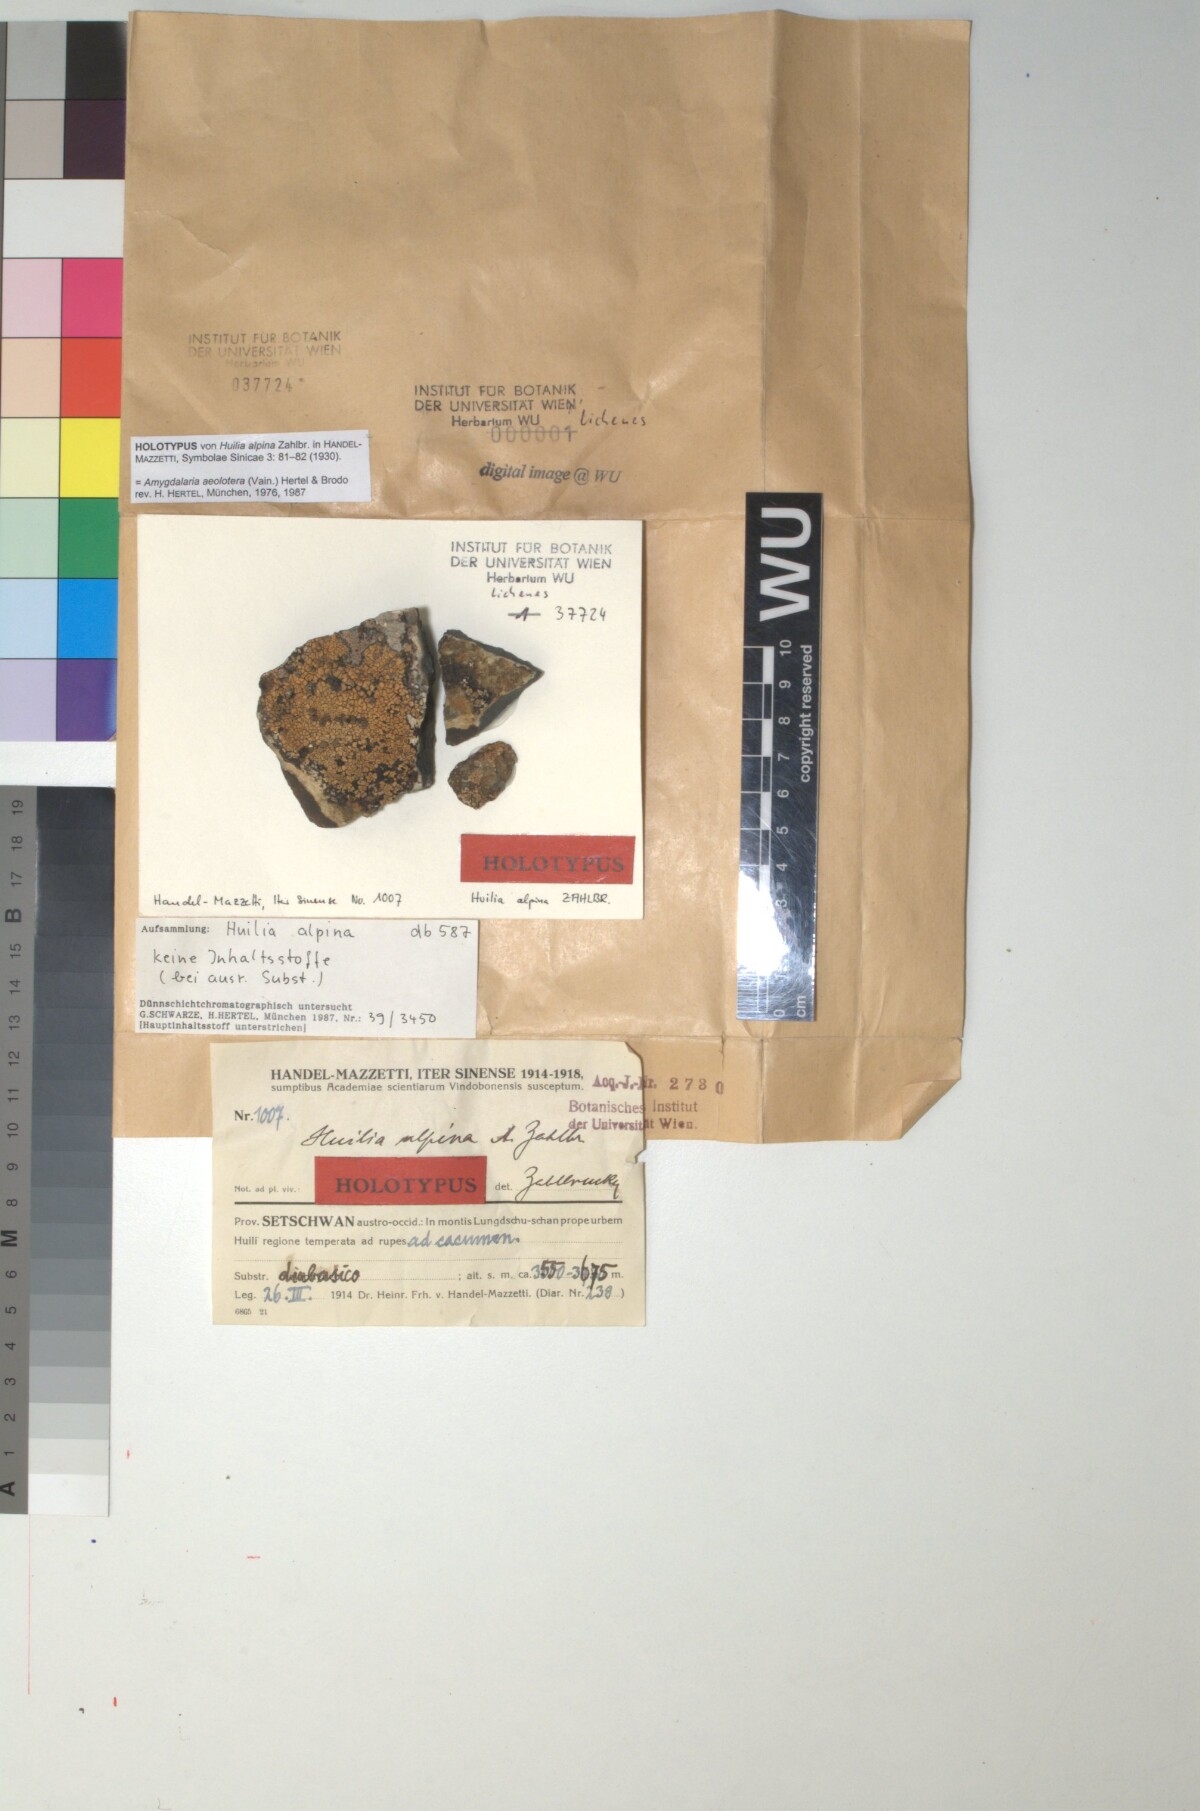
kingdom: Fungi
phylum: Ascomycota
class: Lecanoromycetes
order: Lecideales
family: Porpidiaceae
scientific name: Porpidiaceae
